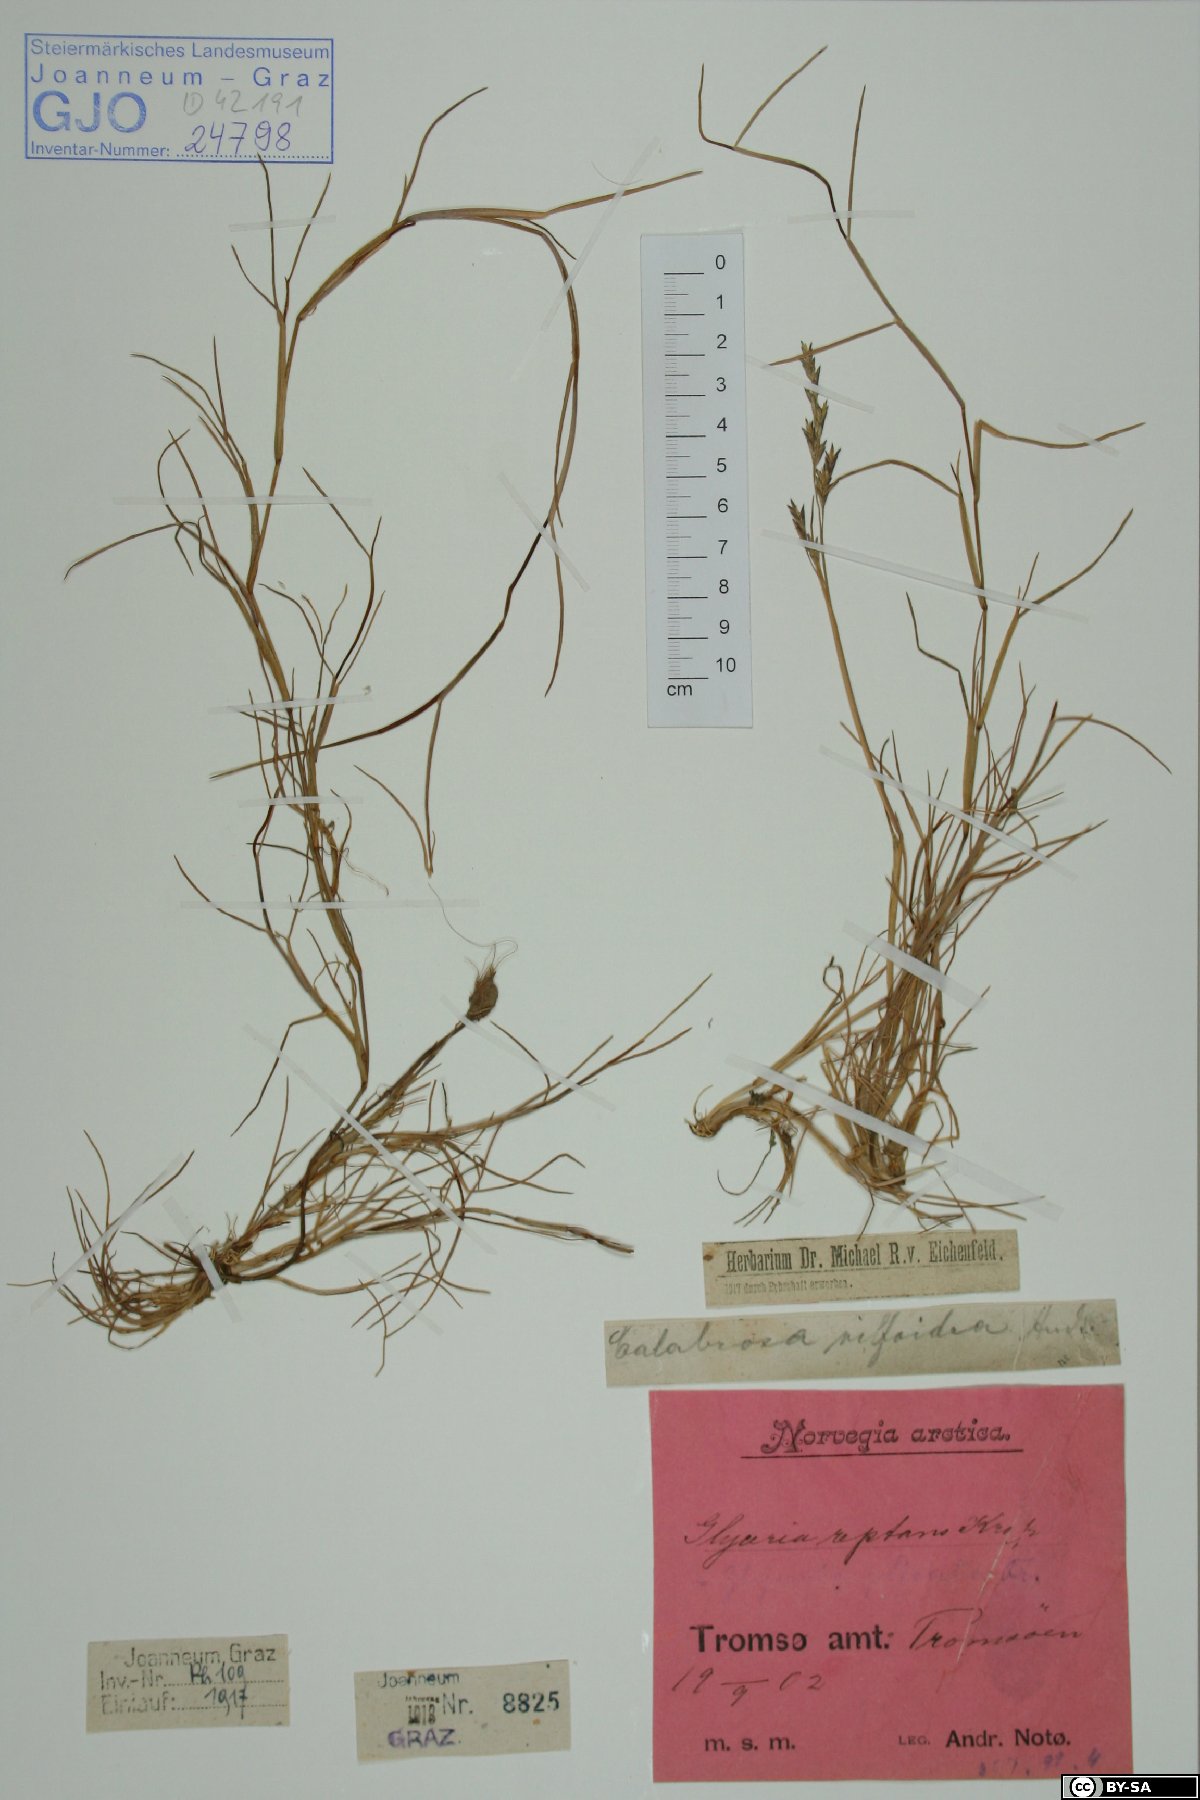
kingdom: Plantae
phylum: Tracheophyta
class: Liliopsida
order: Poales
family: Poaceae
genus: Puccinellia
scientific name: Puccinellia distans
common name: Weeping alkaligrass
